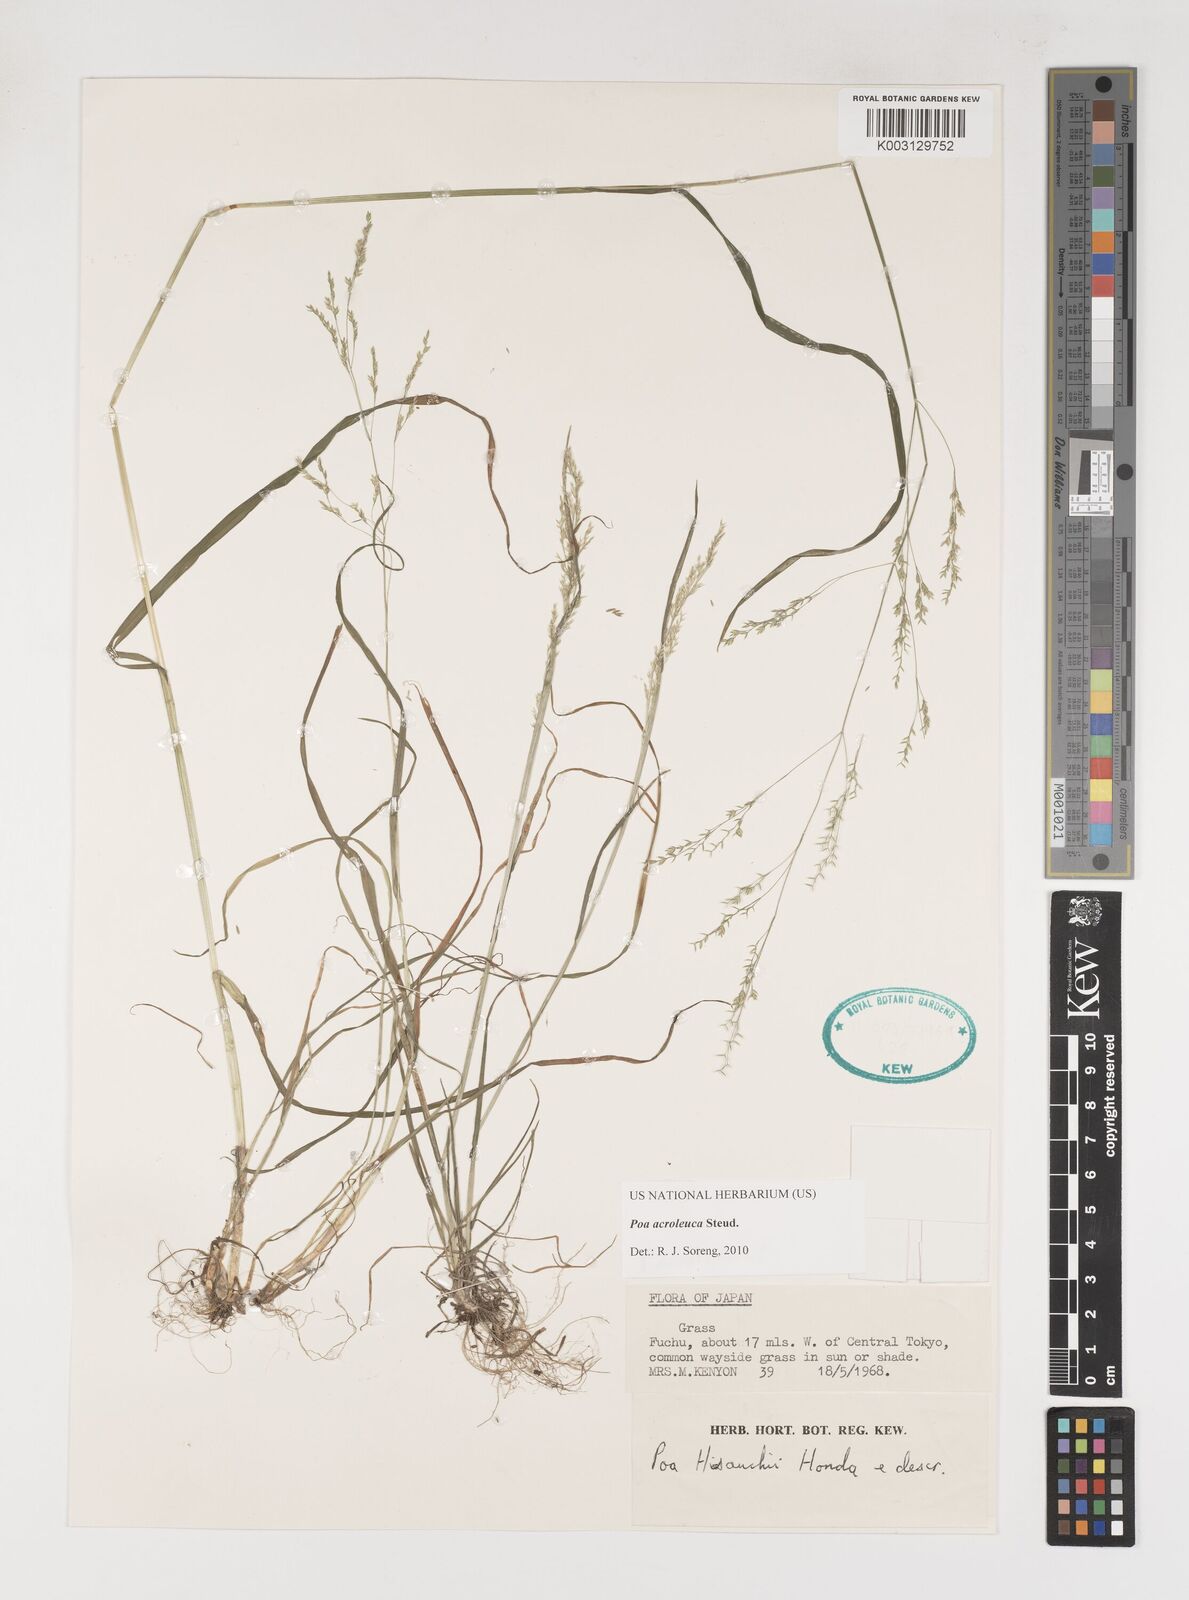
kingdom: Plantae
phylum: Tracheophyta
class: Liliopsida
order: Poales
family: Poaceae
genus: Poa
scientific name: Poa acroleuca
